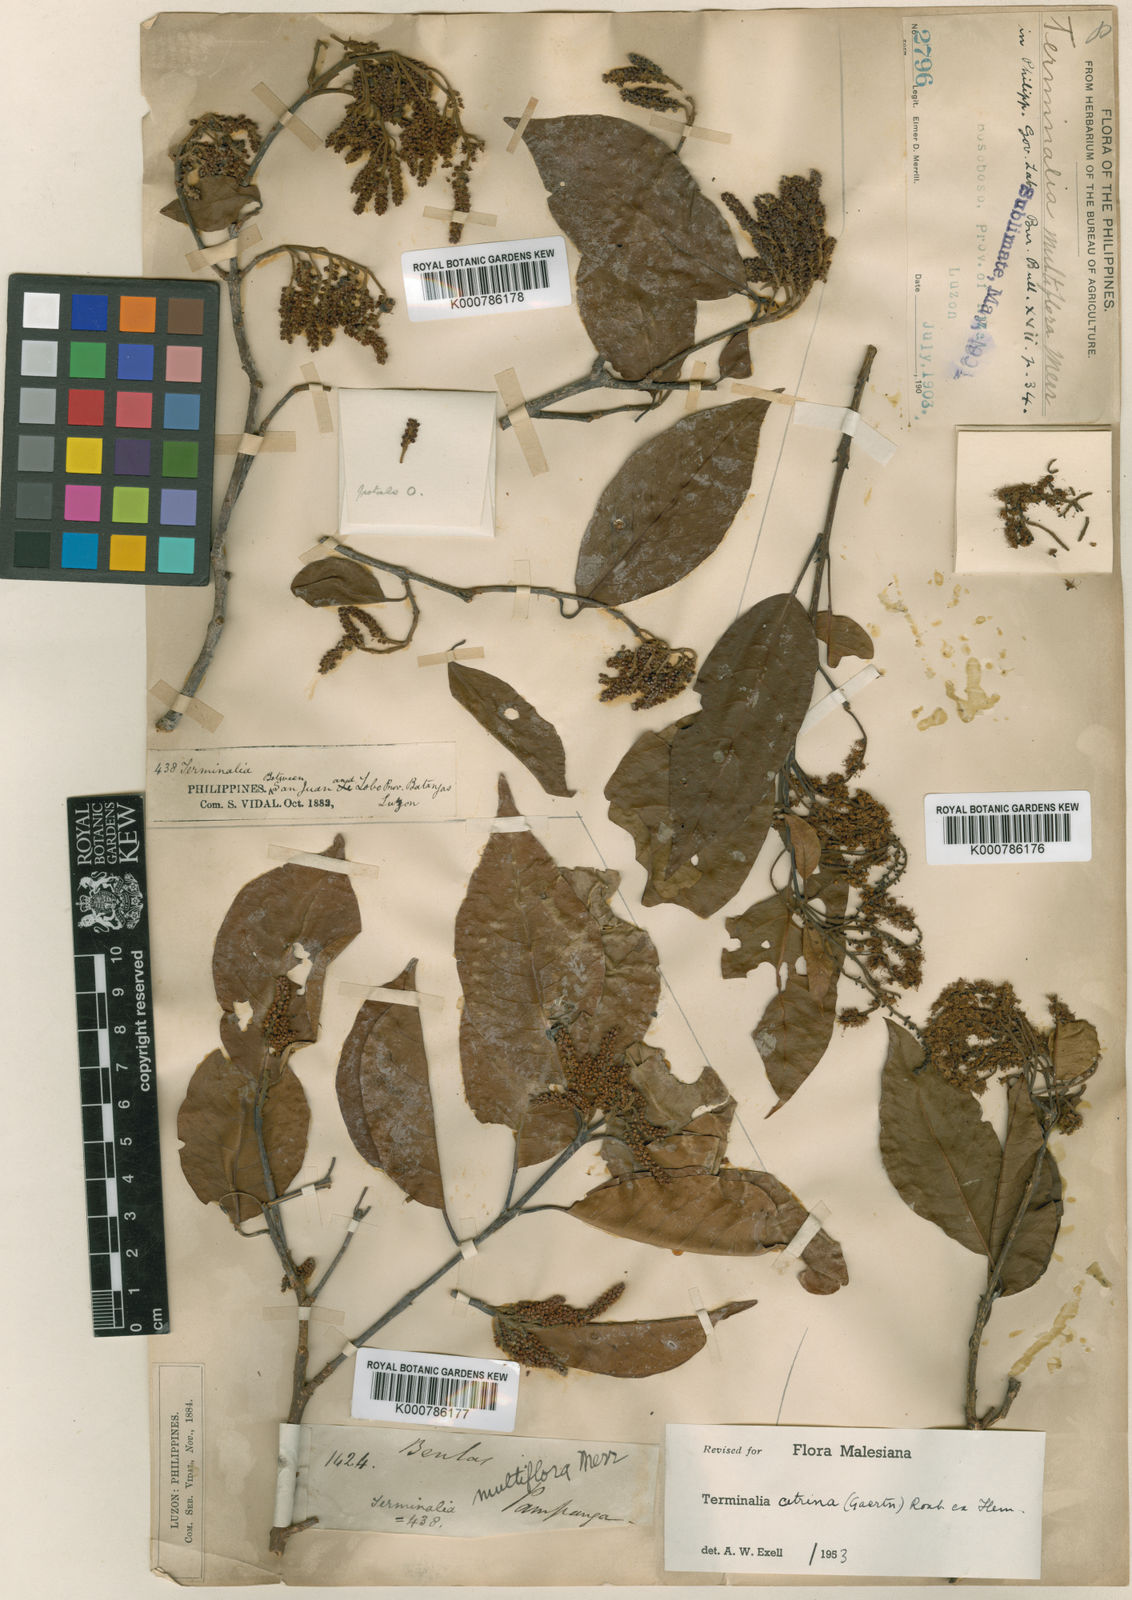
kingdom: Plantae
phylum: Tracheophyta
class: Magnoliopsida
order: Myrtales
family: Combretaceae
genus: Terminalia
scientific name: Terminalia
